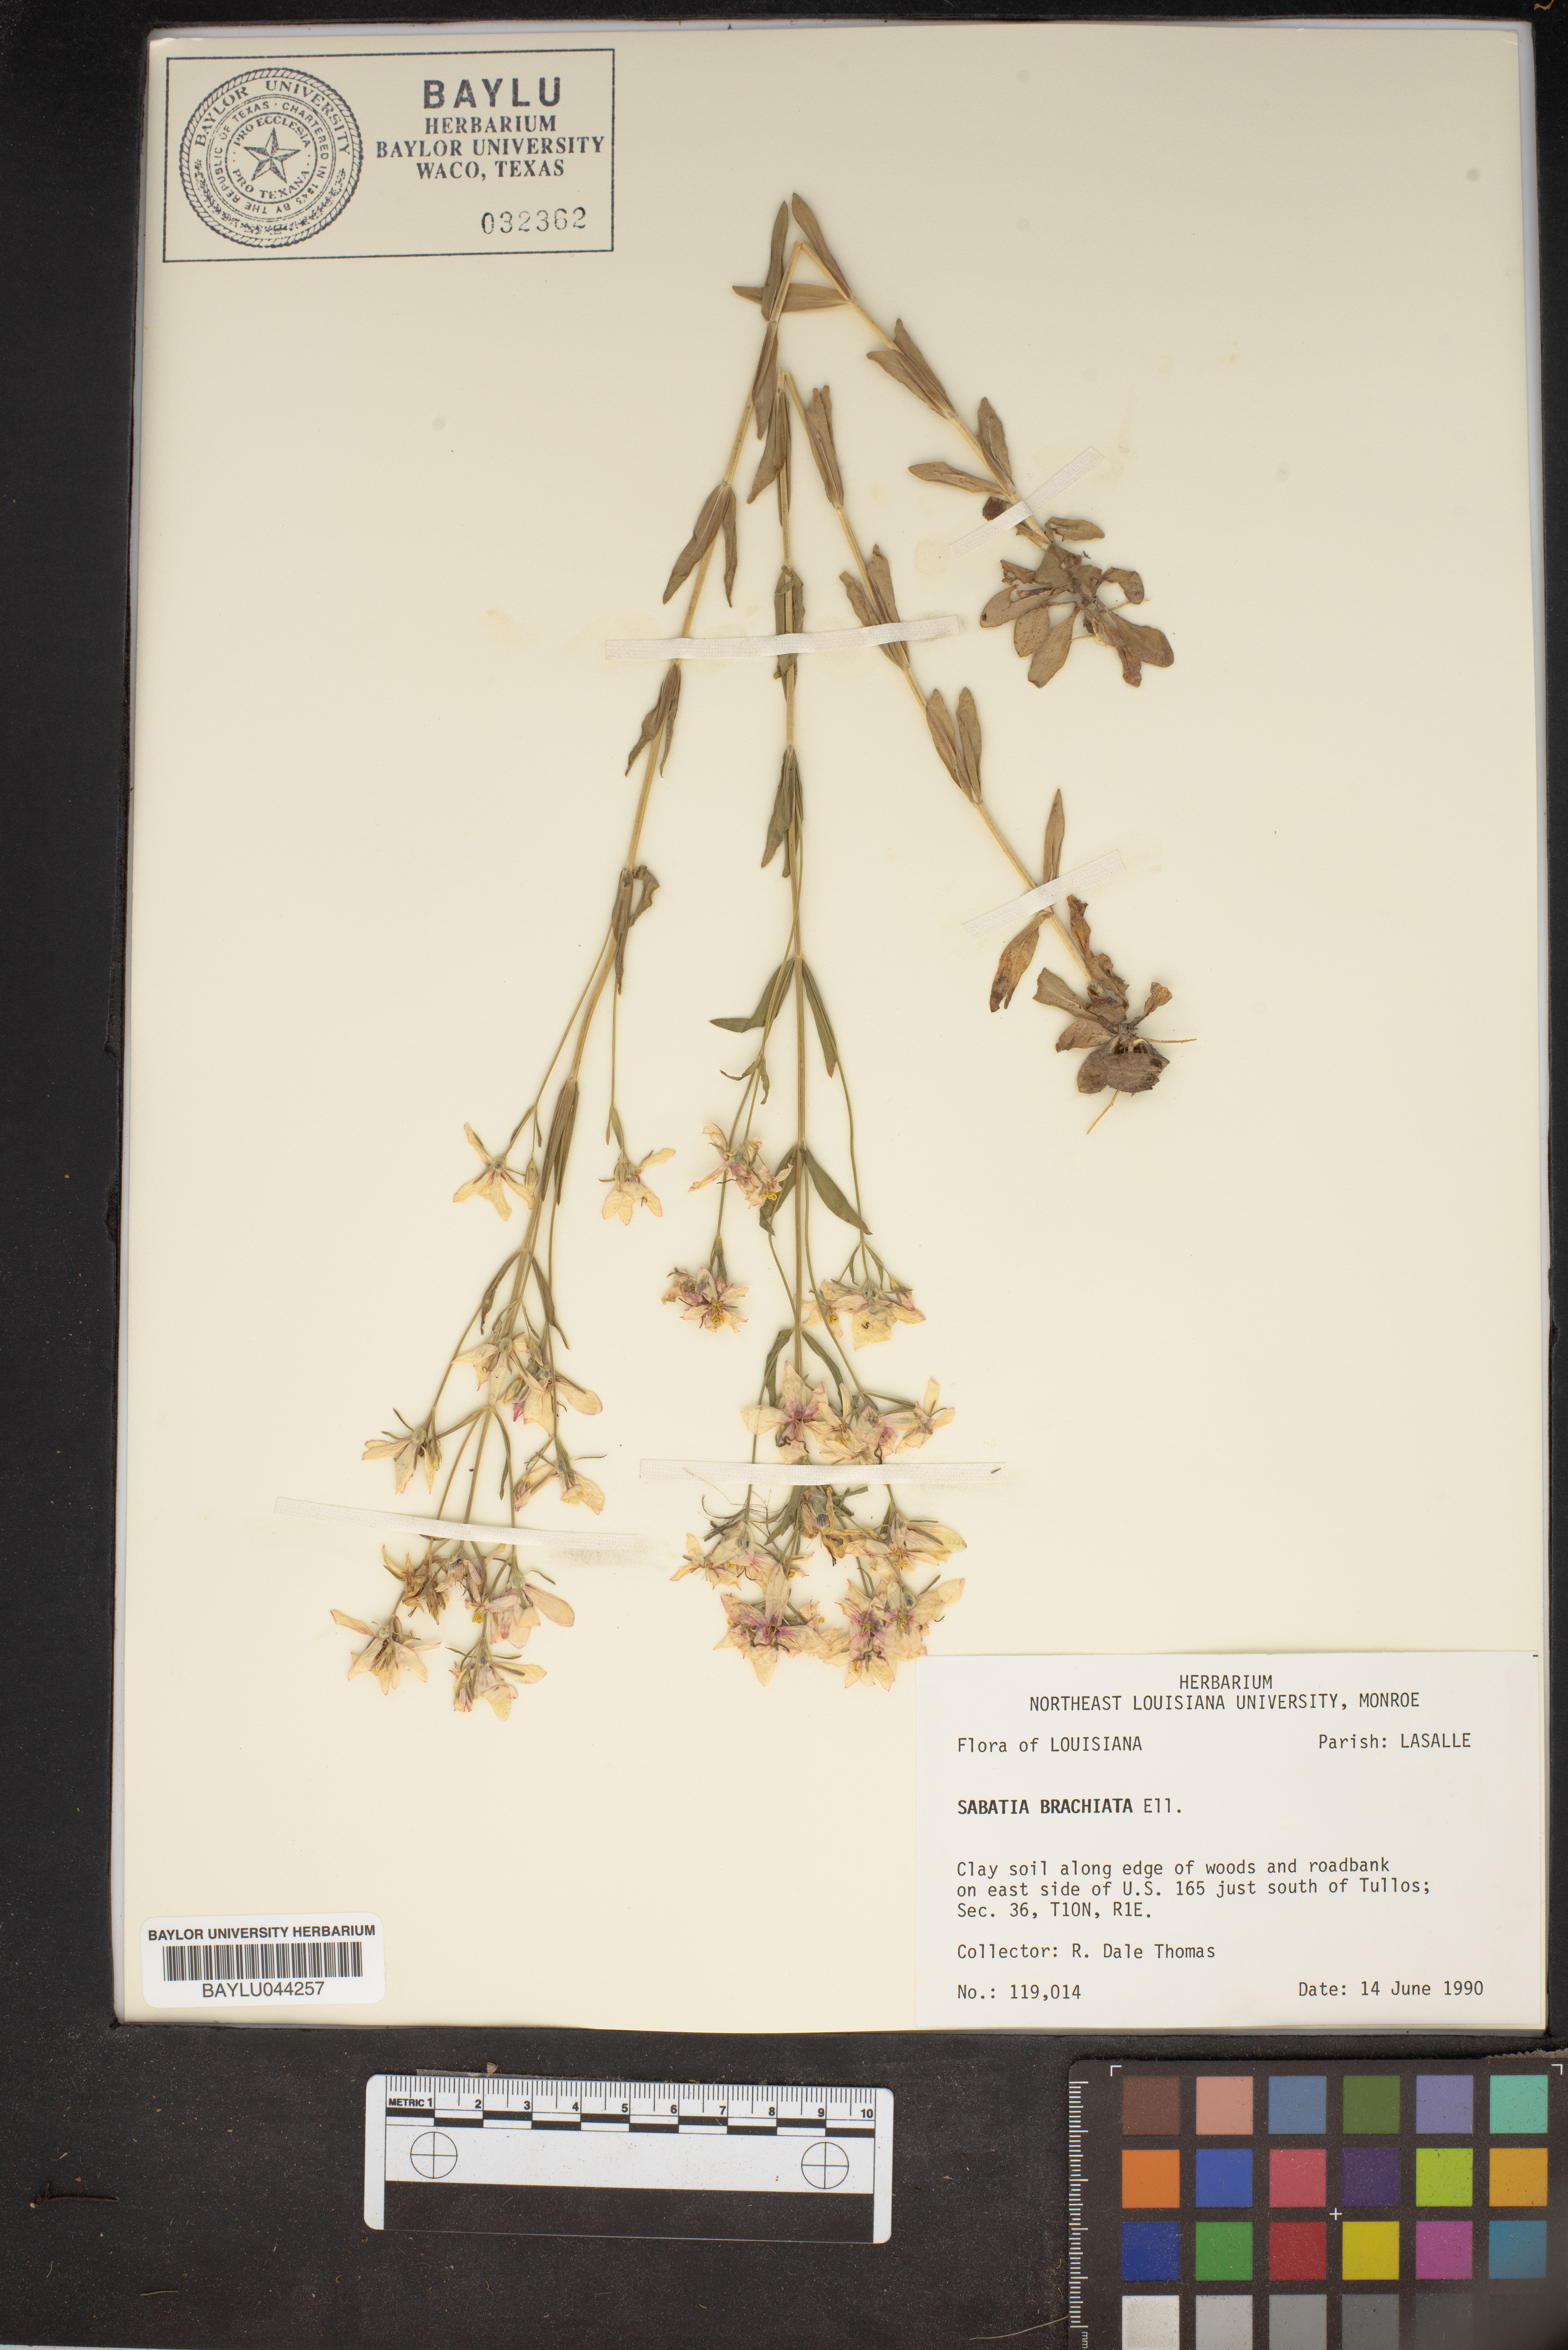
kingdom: Plantae
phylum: Tracheophyta
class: Magnoliopsida
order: Gentianales
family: Gentianaceae
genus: Sabatia
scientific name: Sabatia brachiata
